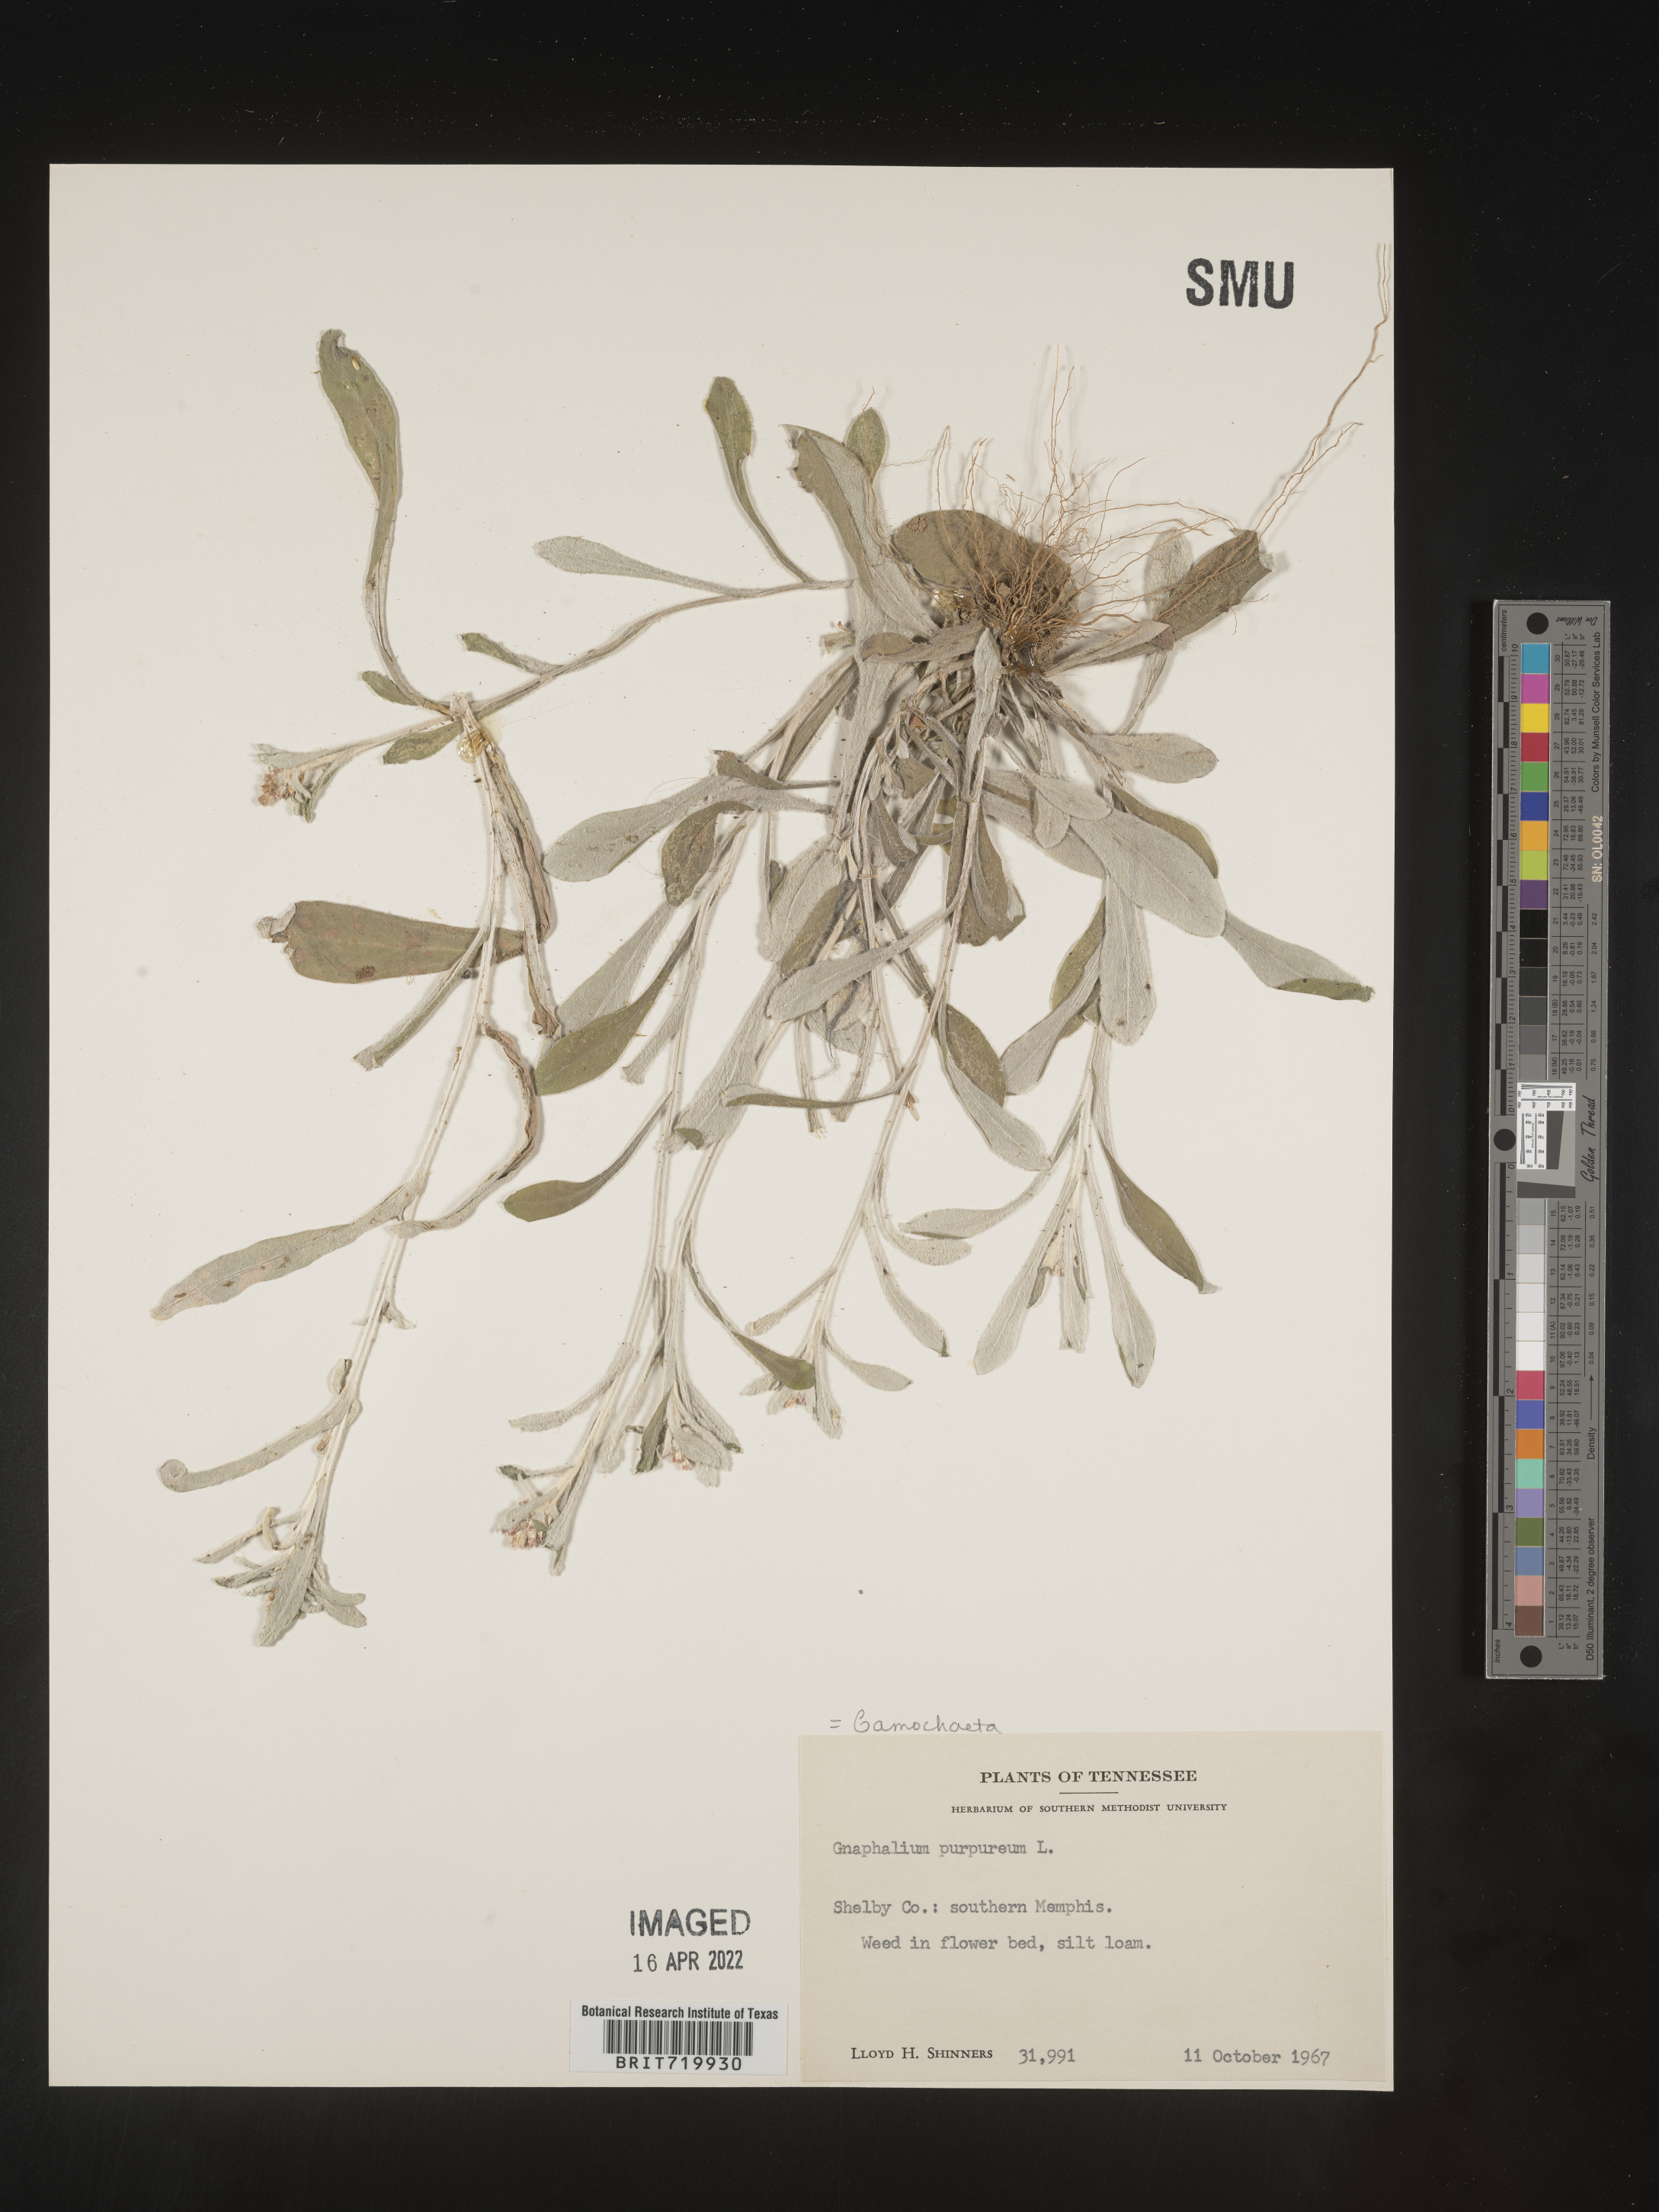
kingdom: Plantae
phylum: Tracheophyta
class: Magnoliopsida
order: Asterales
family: Asteraceae
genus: Gamochaeta
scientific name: Gamochaeta purpurea
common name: Purple cudweed
